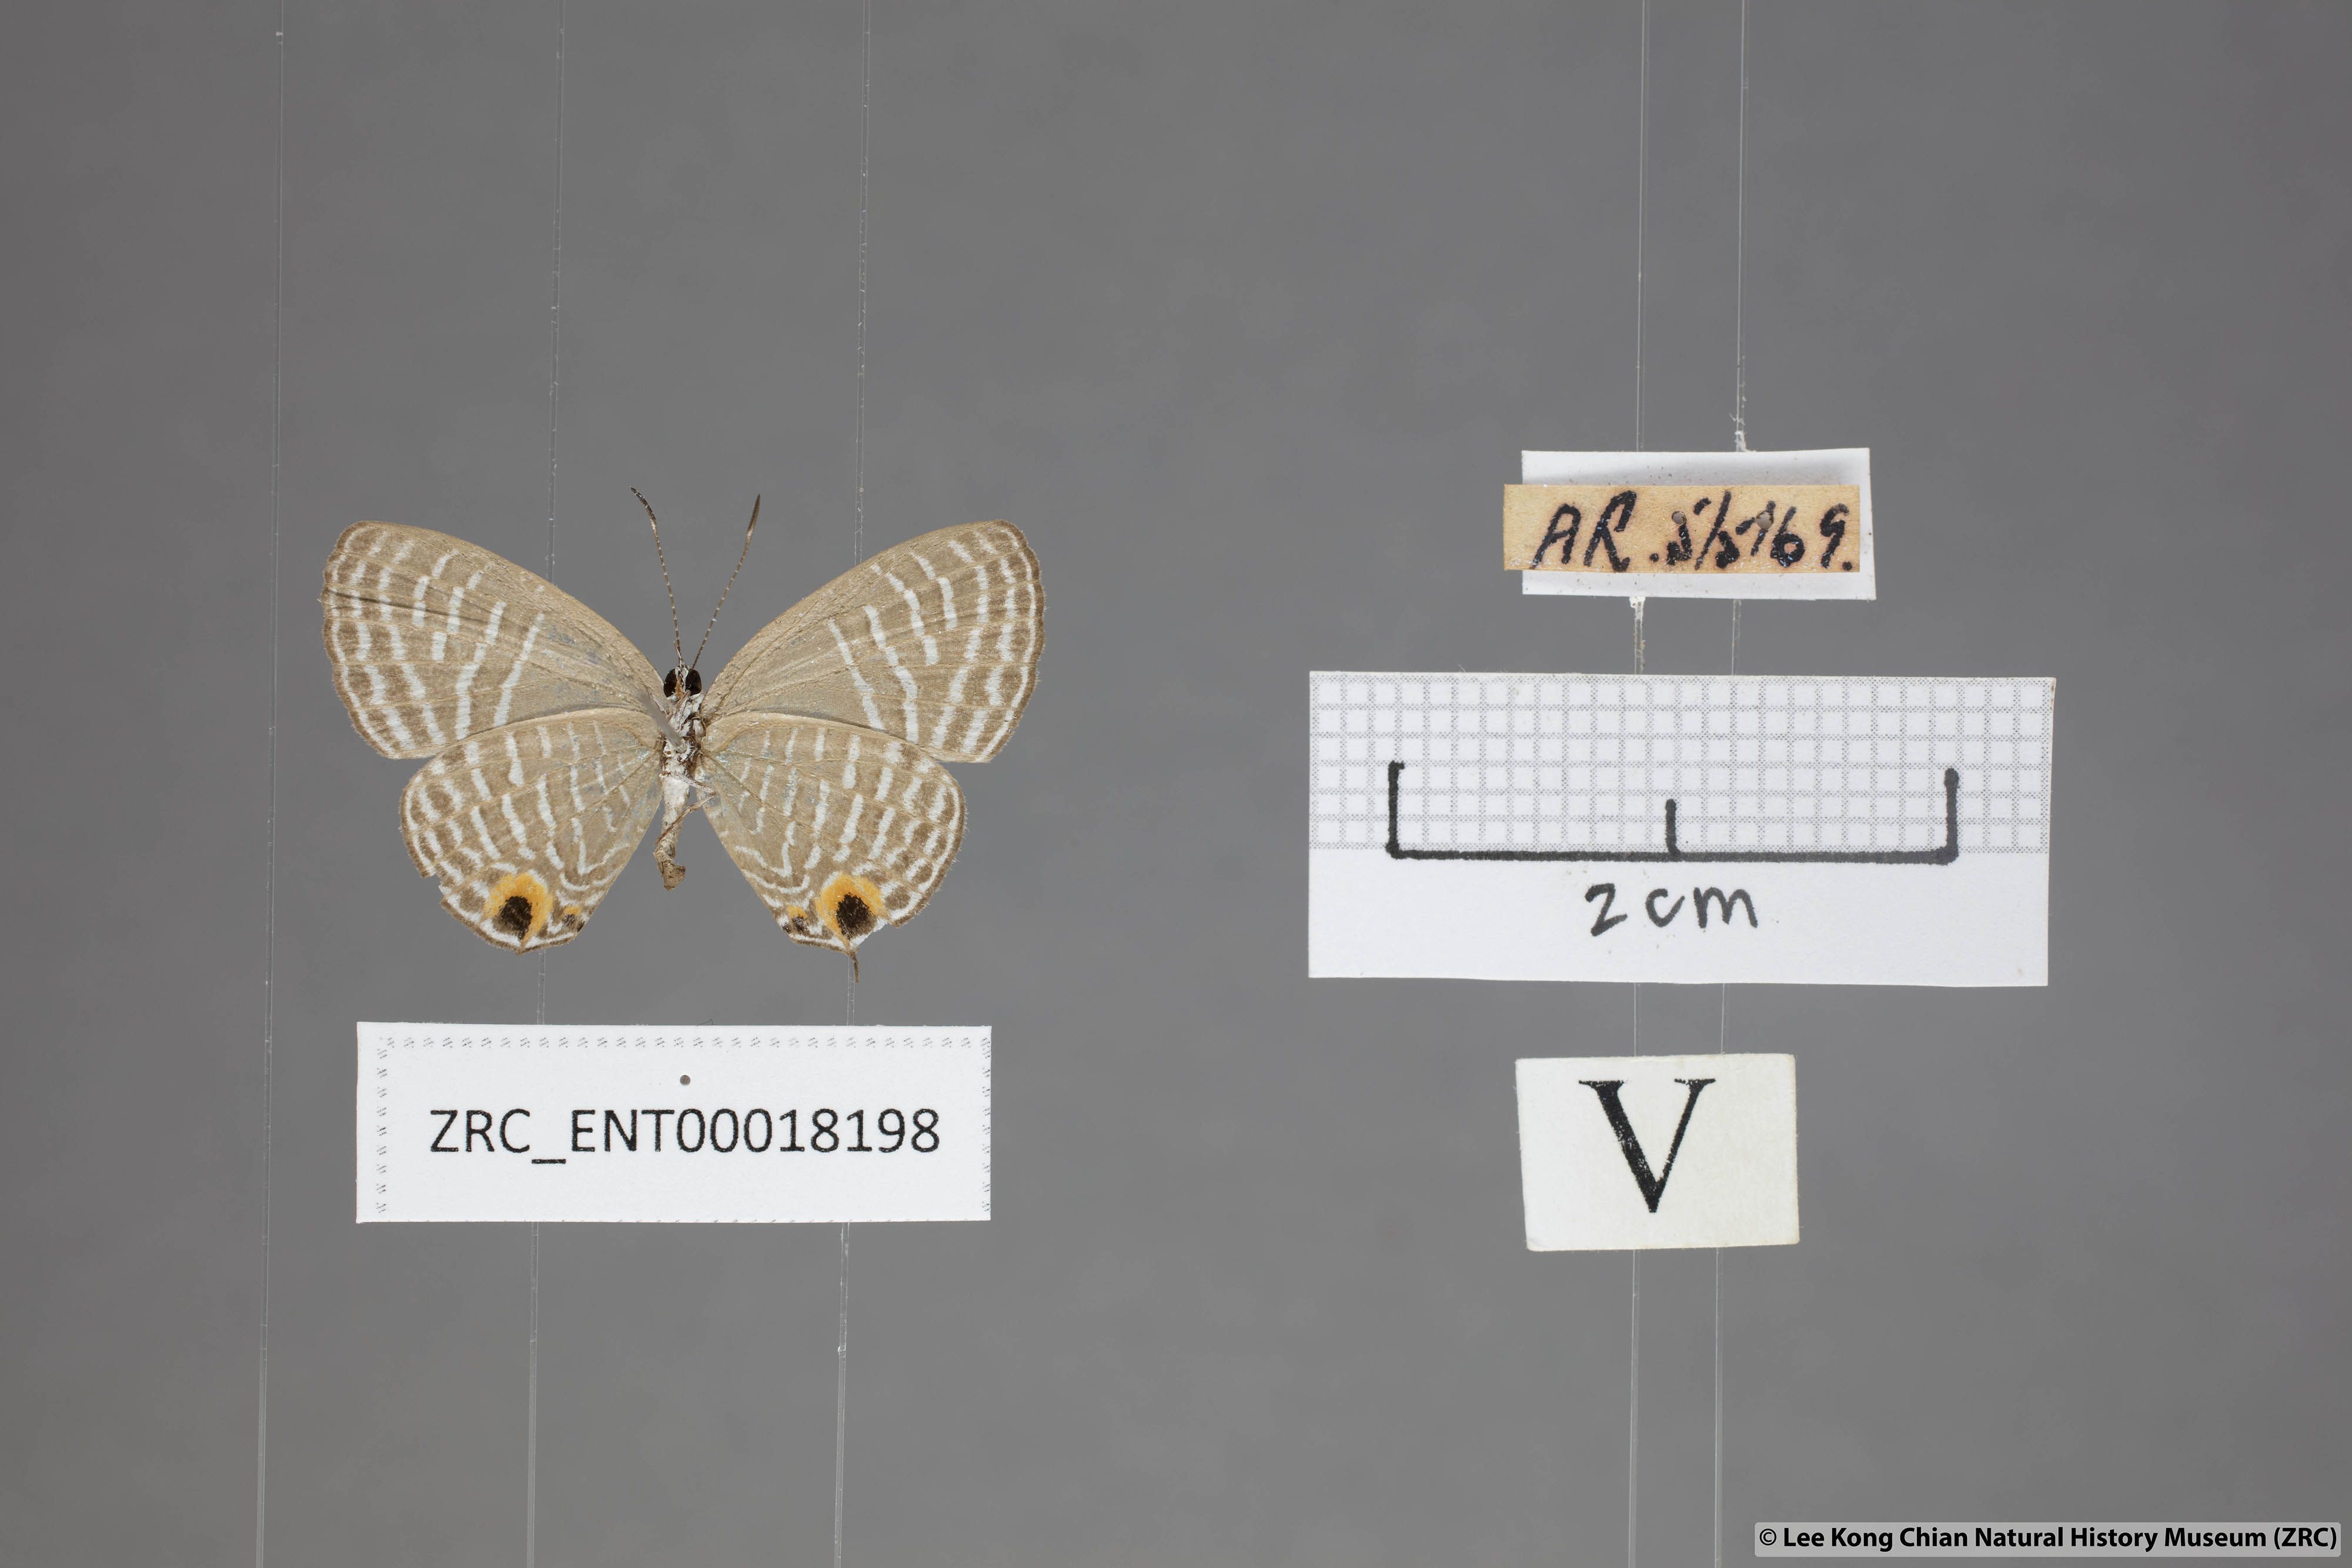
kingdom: Animalia
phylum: Arthropoda
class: Insecta
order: Lepidoptera
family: Lycaenidae
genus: Jamides
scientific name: Jamides talinga
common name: Lesser cerulean
